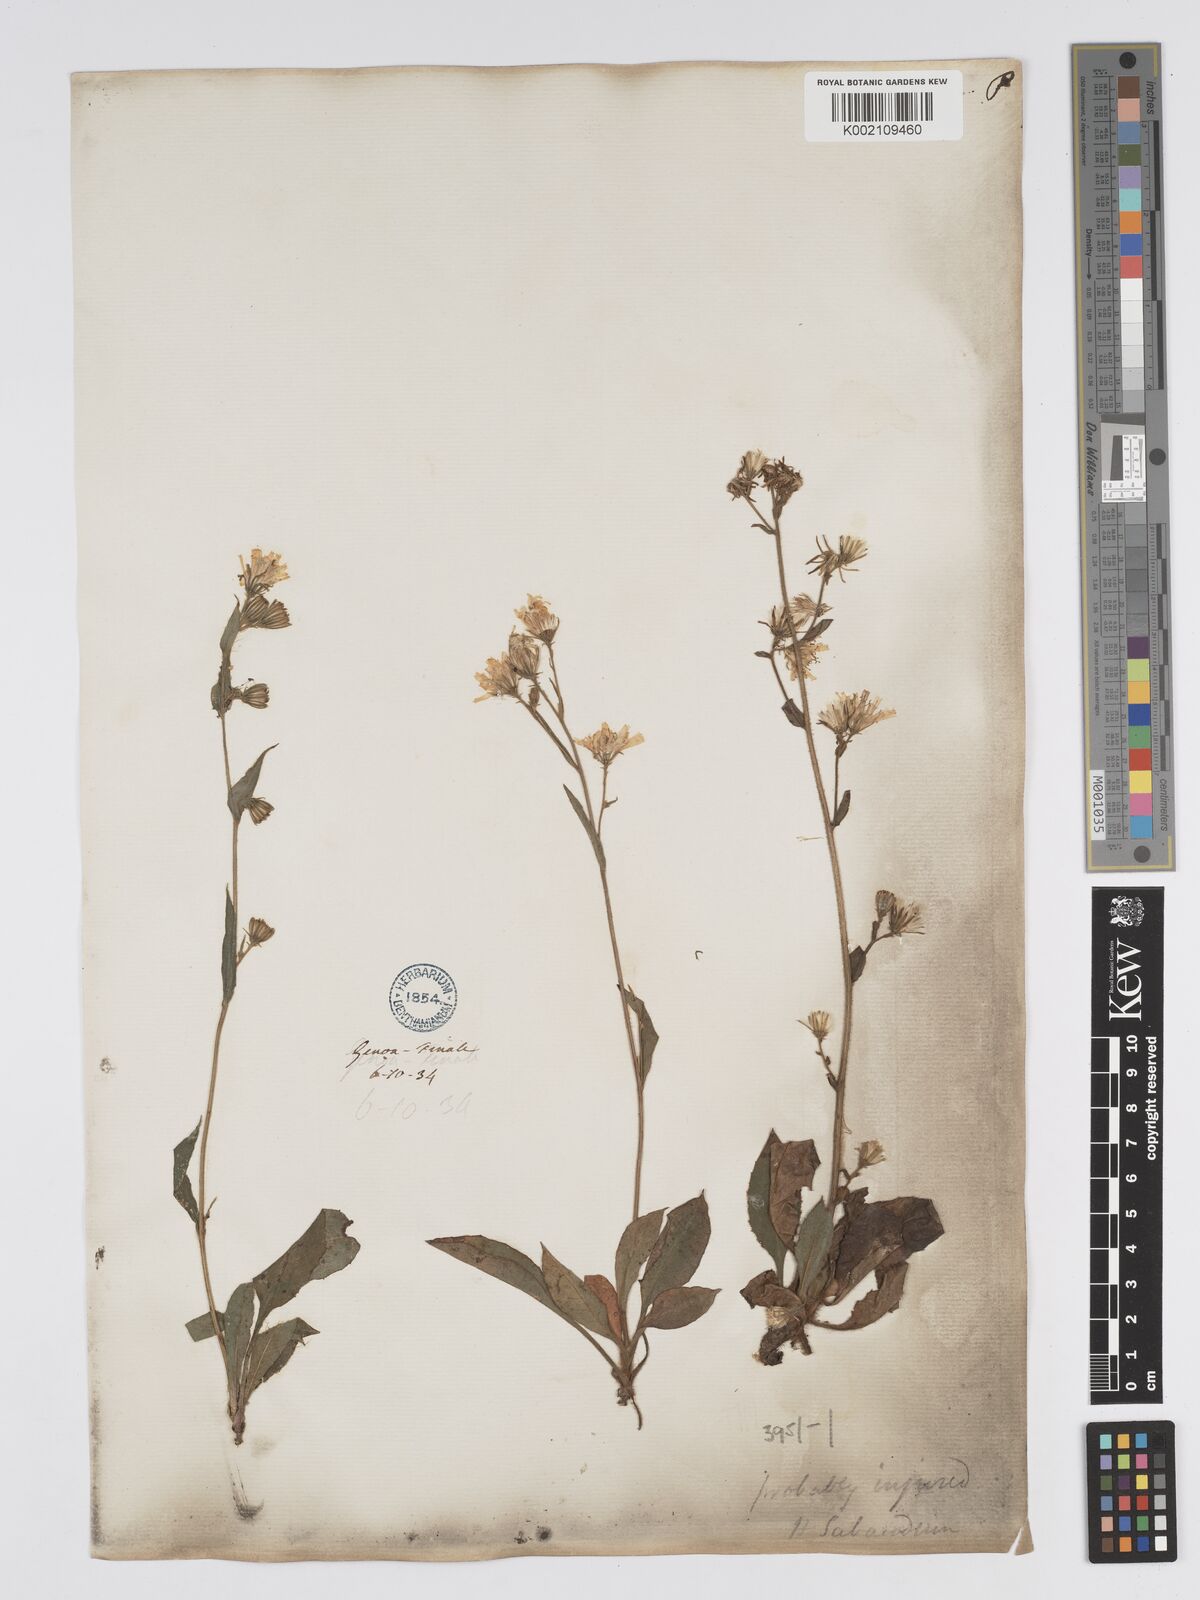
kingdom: Plantae
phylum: Tracheophyta
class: Magnoliopsida
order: Asterales
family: Asteraceae
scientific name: Asteraceae
